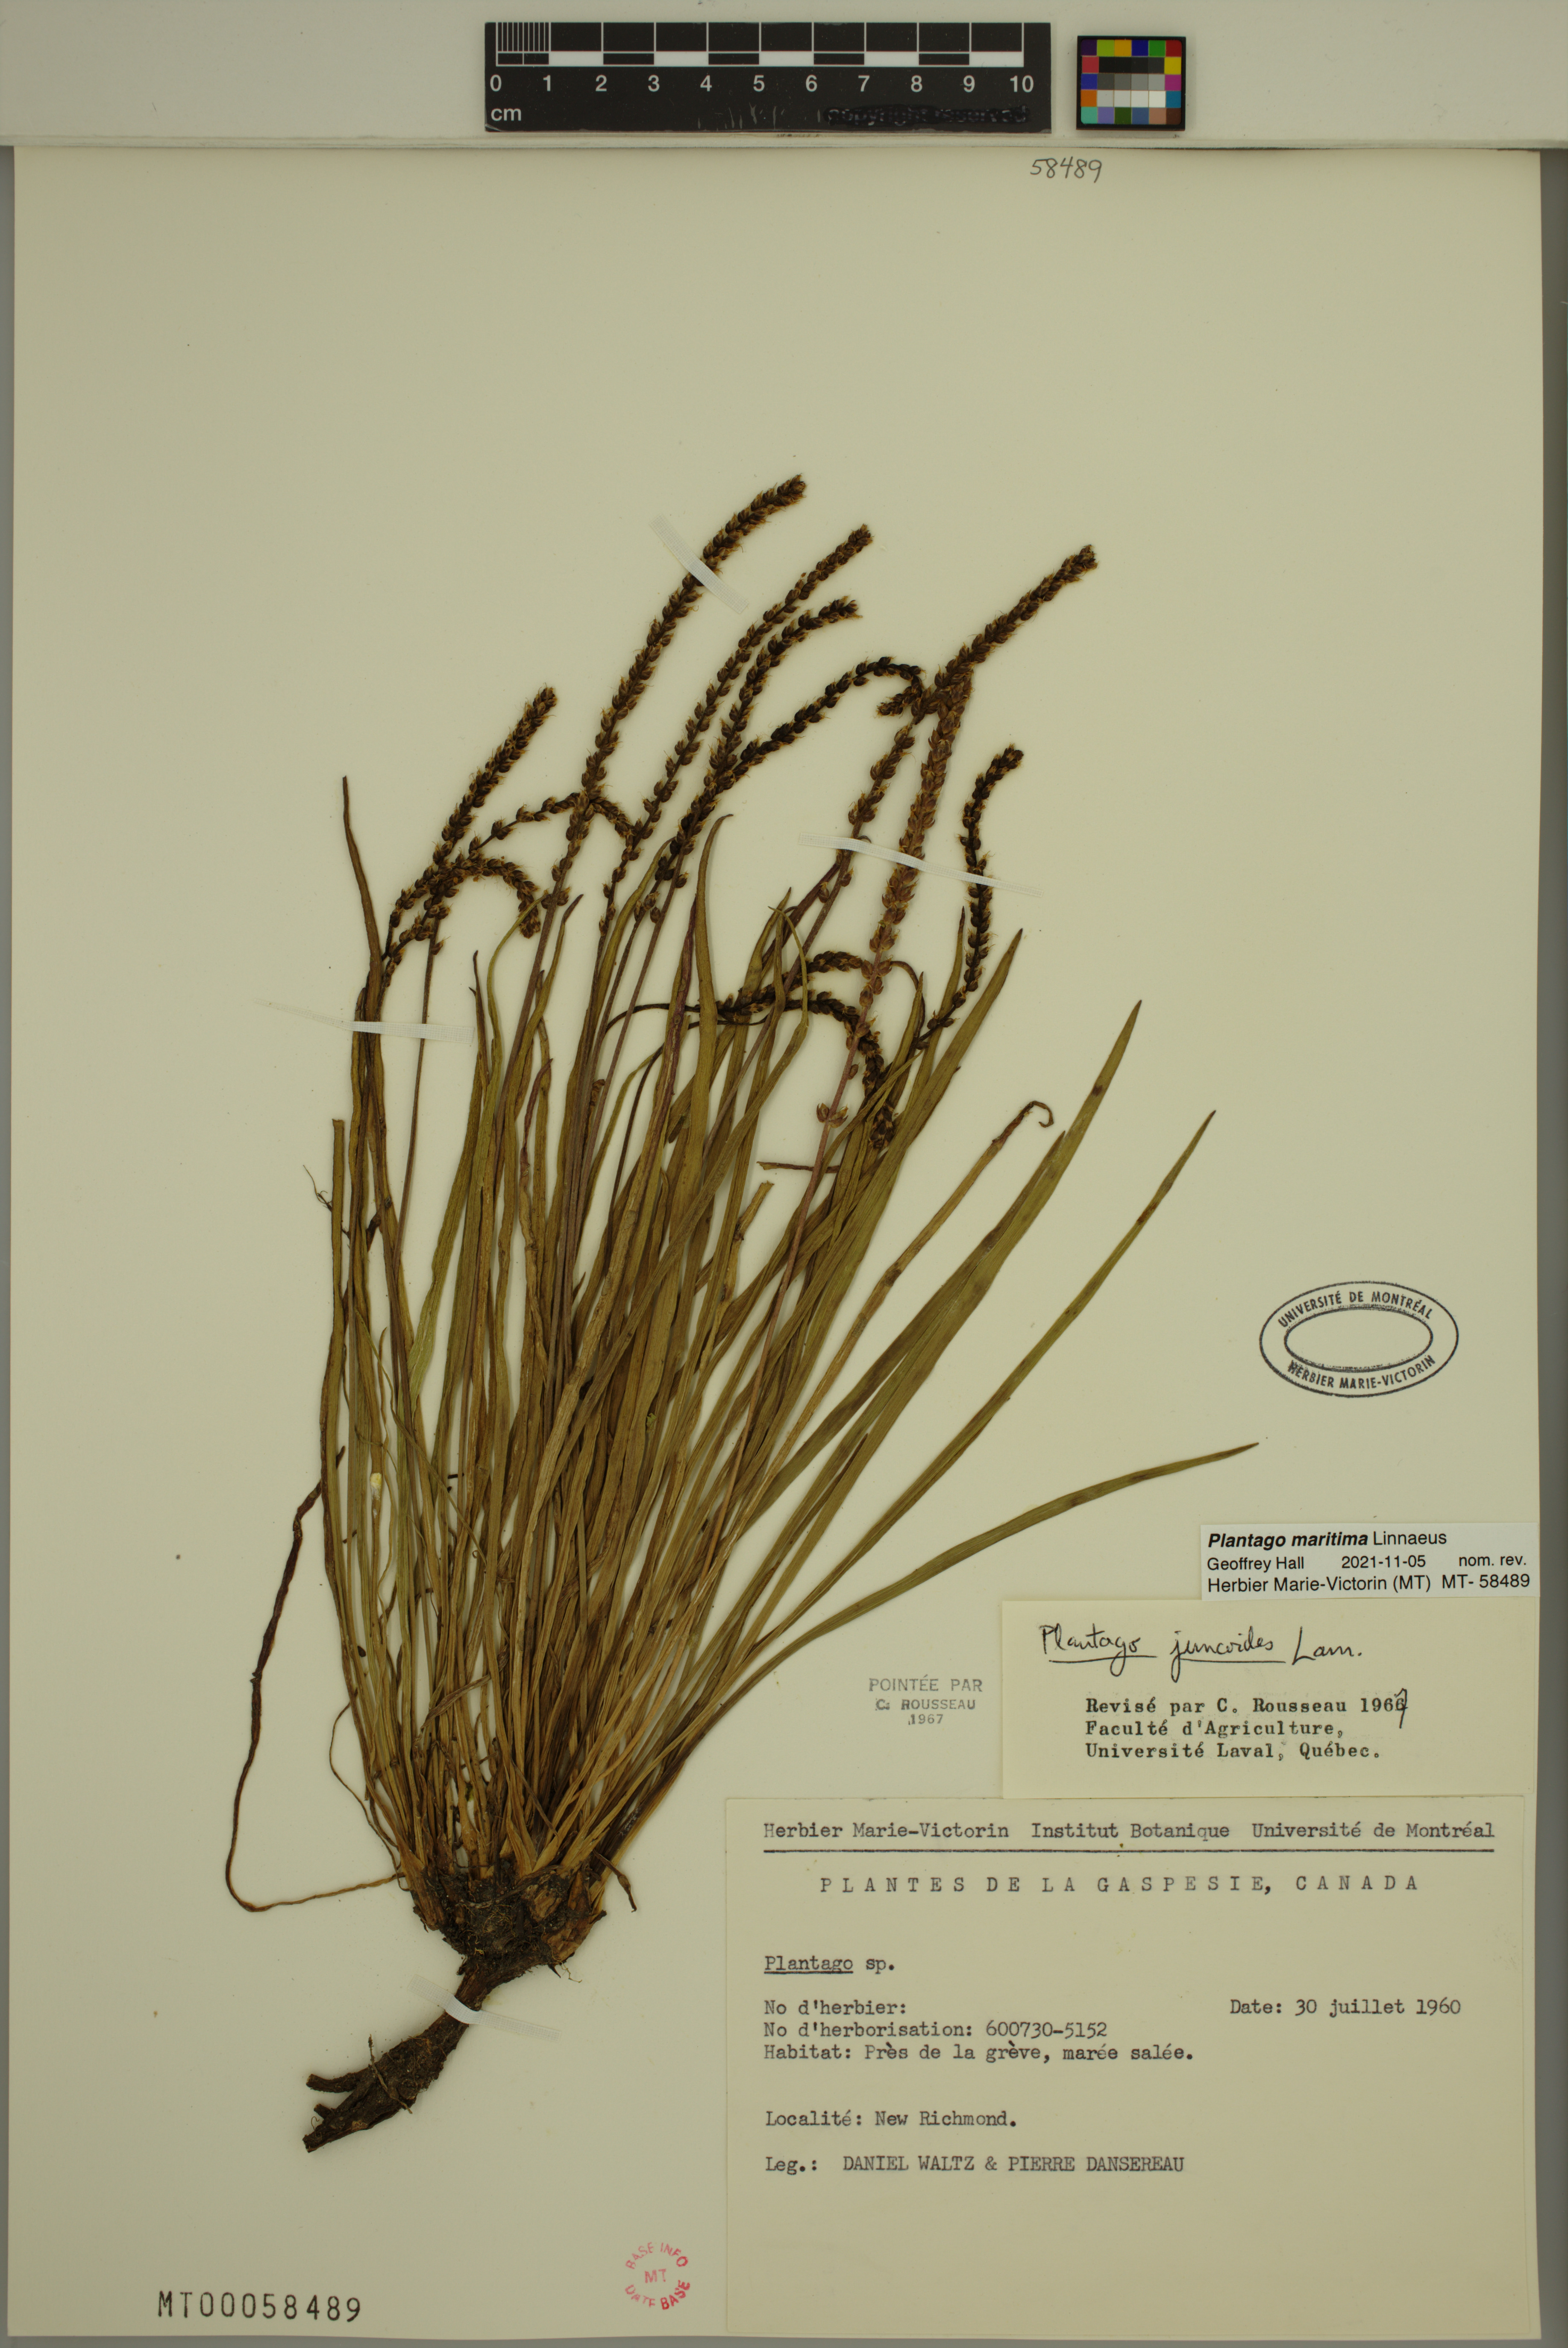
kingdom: Plantae
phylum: Tracheophyta
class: Magnoliopsida
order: Lamiales
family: Plantaginaceae
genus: Plantago
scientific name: Plantago maritima
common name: Sea plantain
